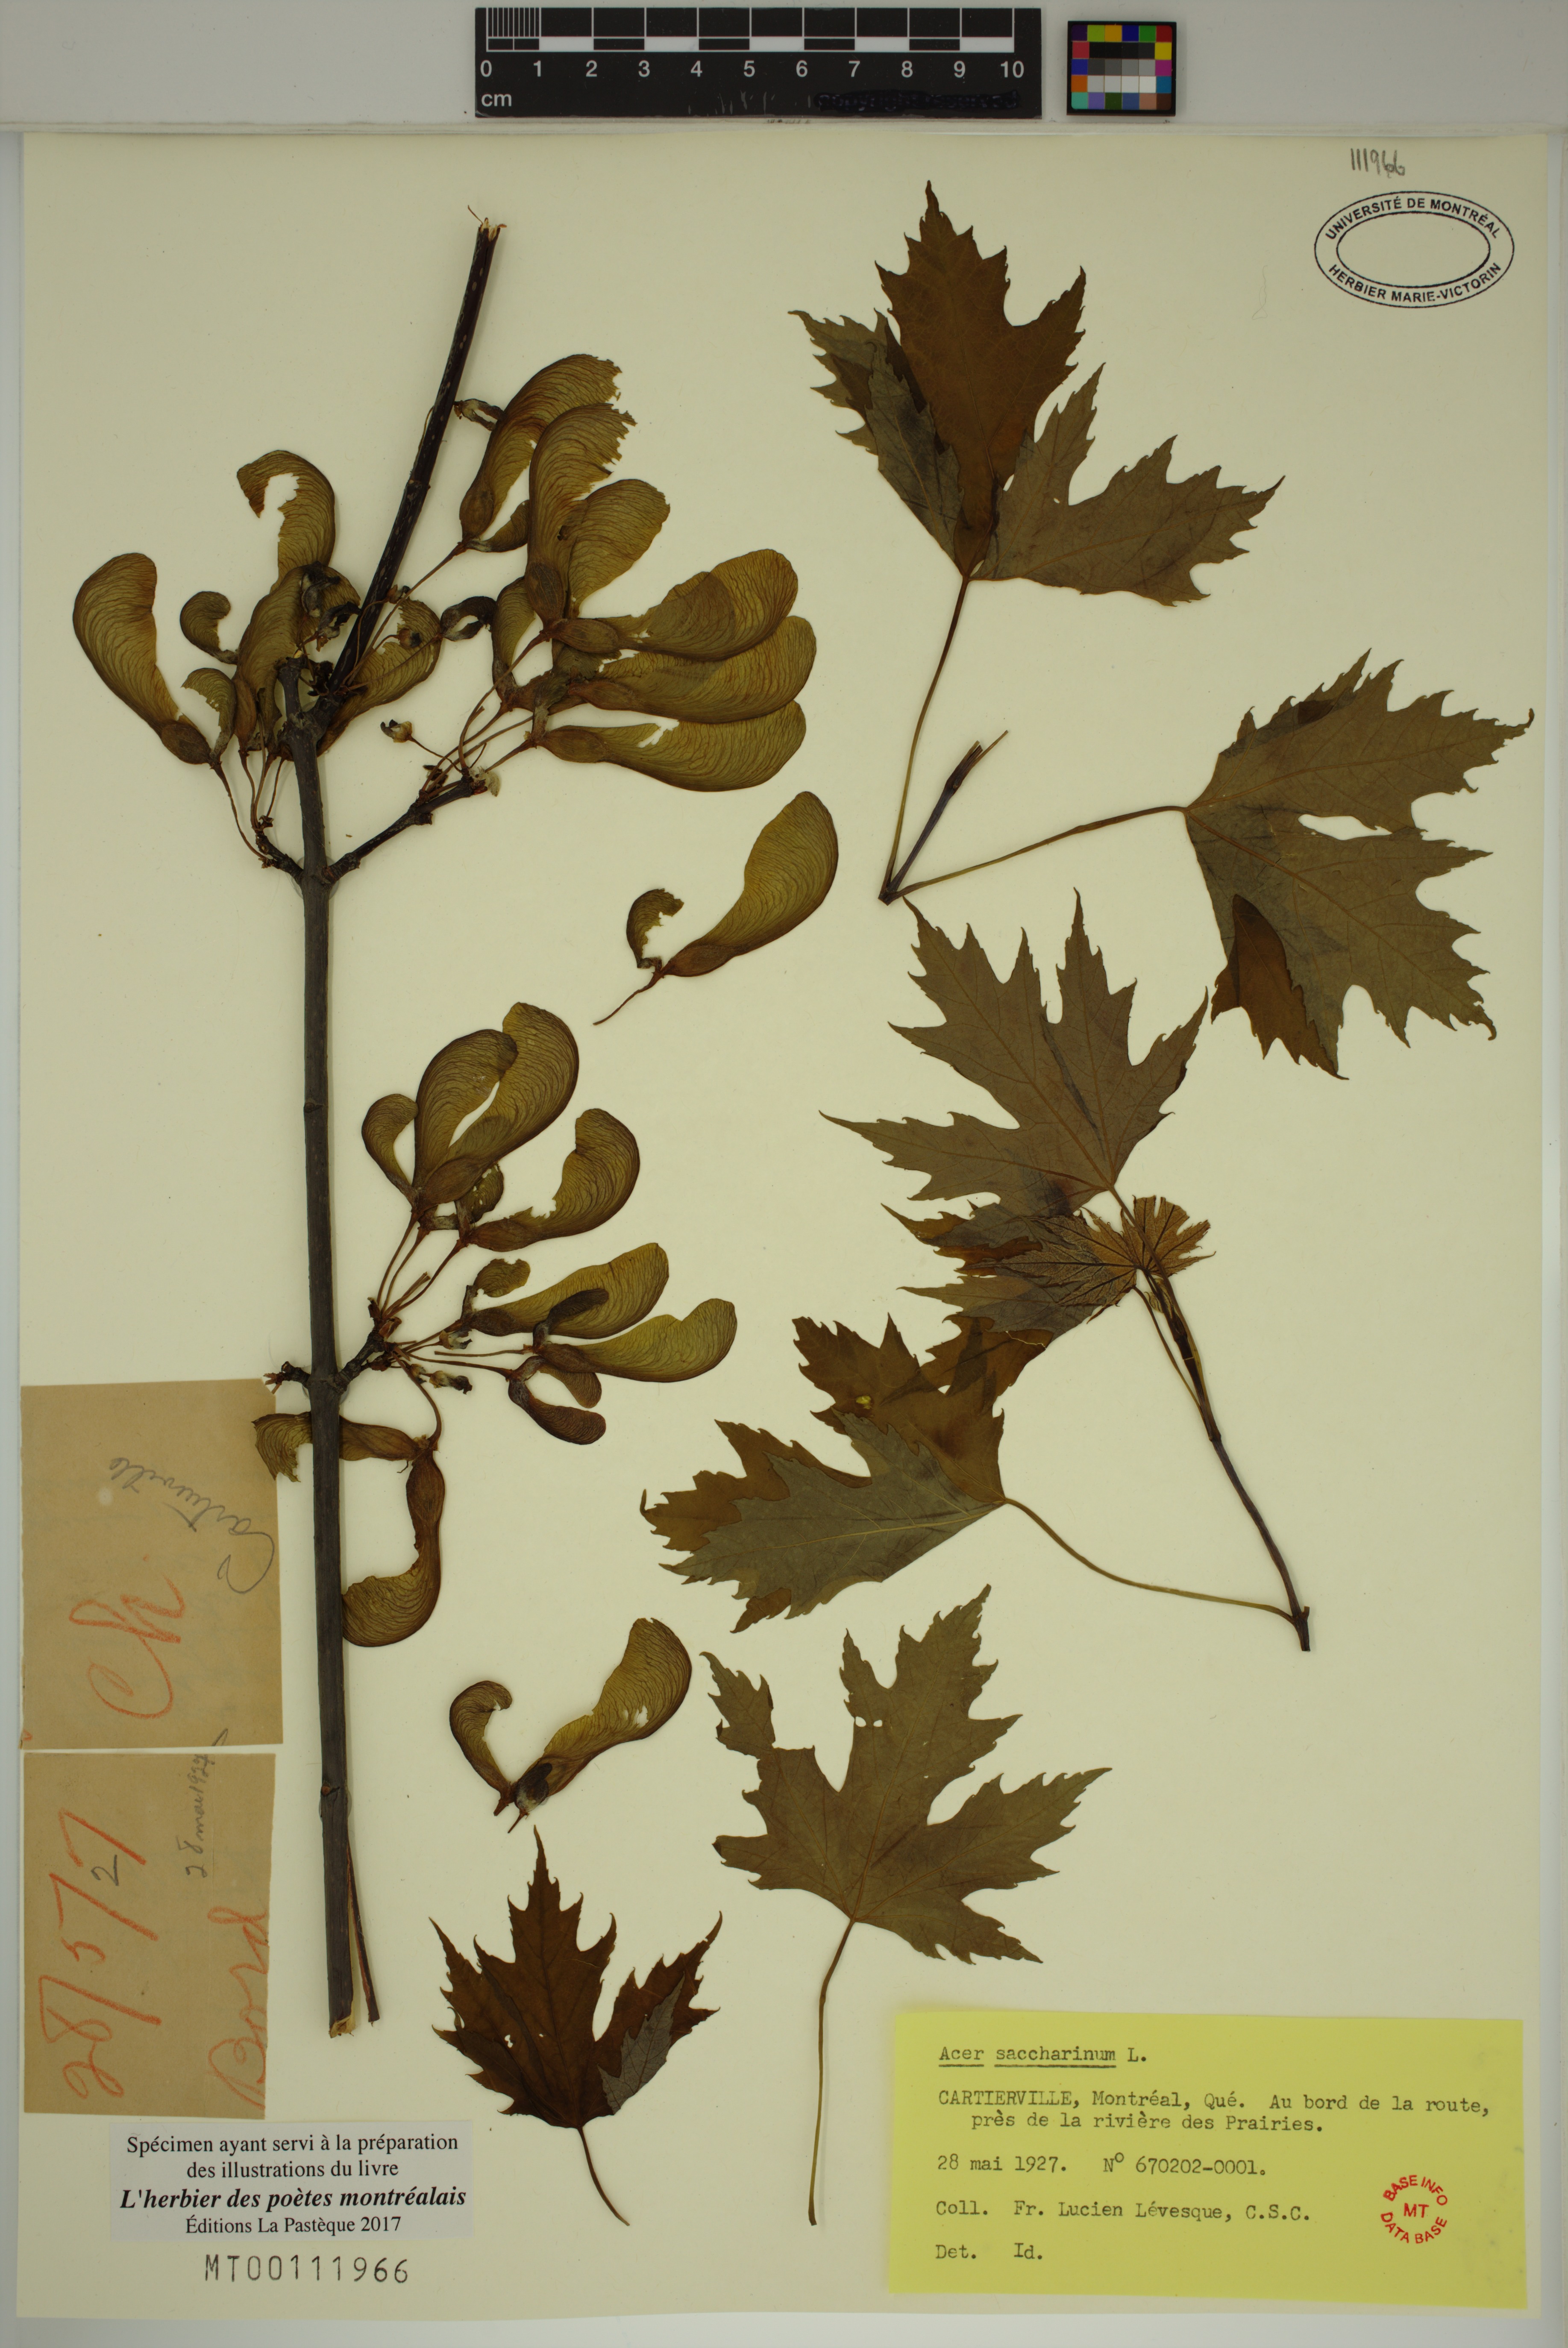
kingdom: Plantae
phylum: Tracheophyta
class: Magnoliopsida
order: Sapindales
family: Sapindaceae
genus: Acer
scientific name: Acer saccharinum
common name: Silver maple
